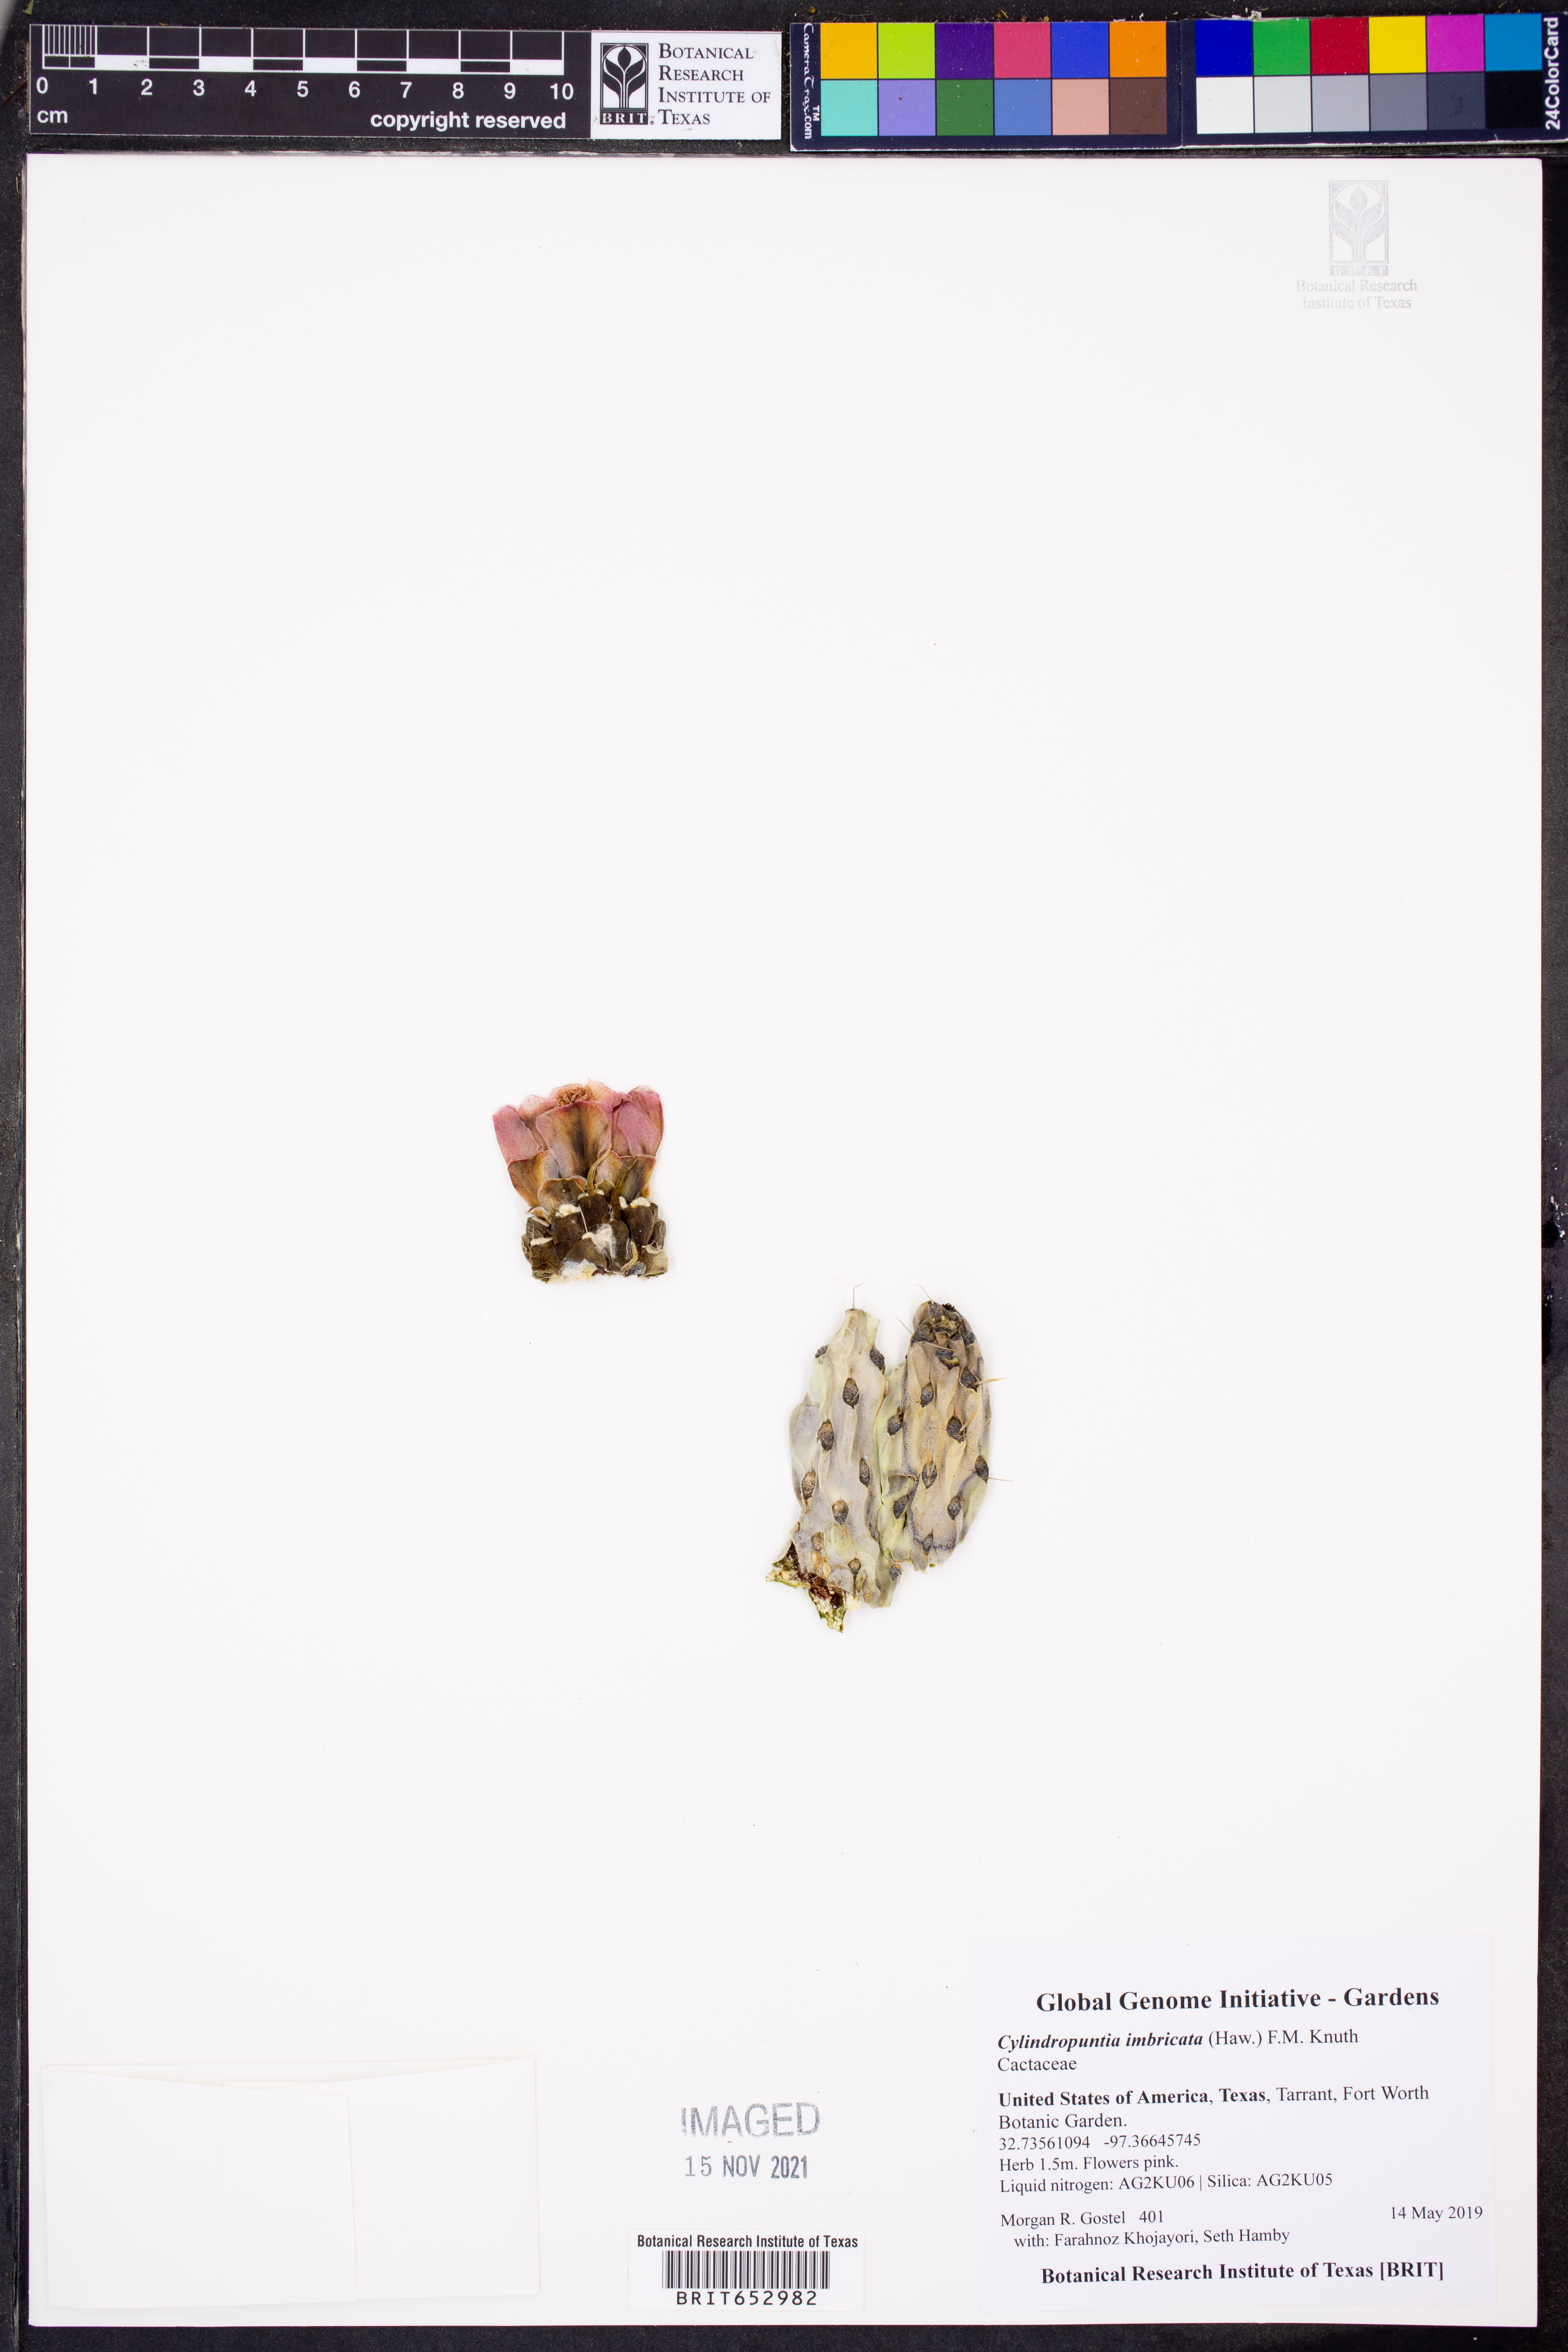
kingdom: Plantae
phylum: Tracheophyta
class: Magnoliopsida
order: Caryophyllales
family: Cactaceae
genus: Cylindropuntia
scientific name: Cylindropuntia imbricata
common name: Candelabrum cactus
